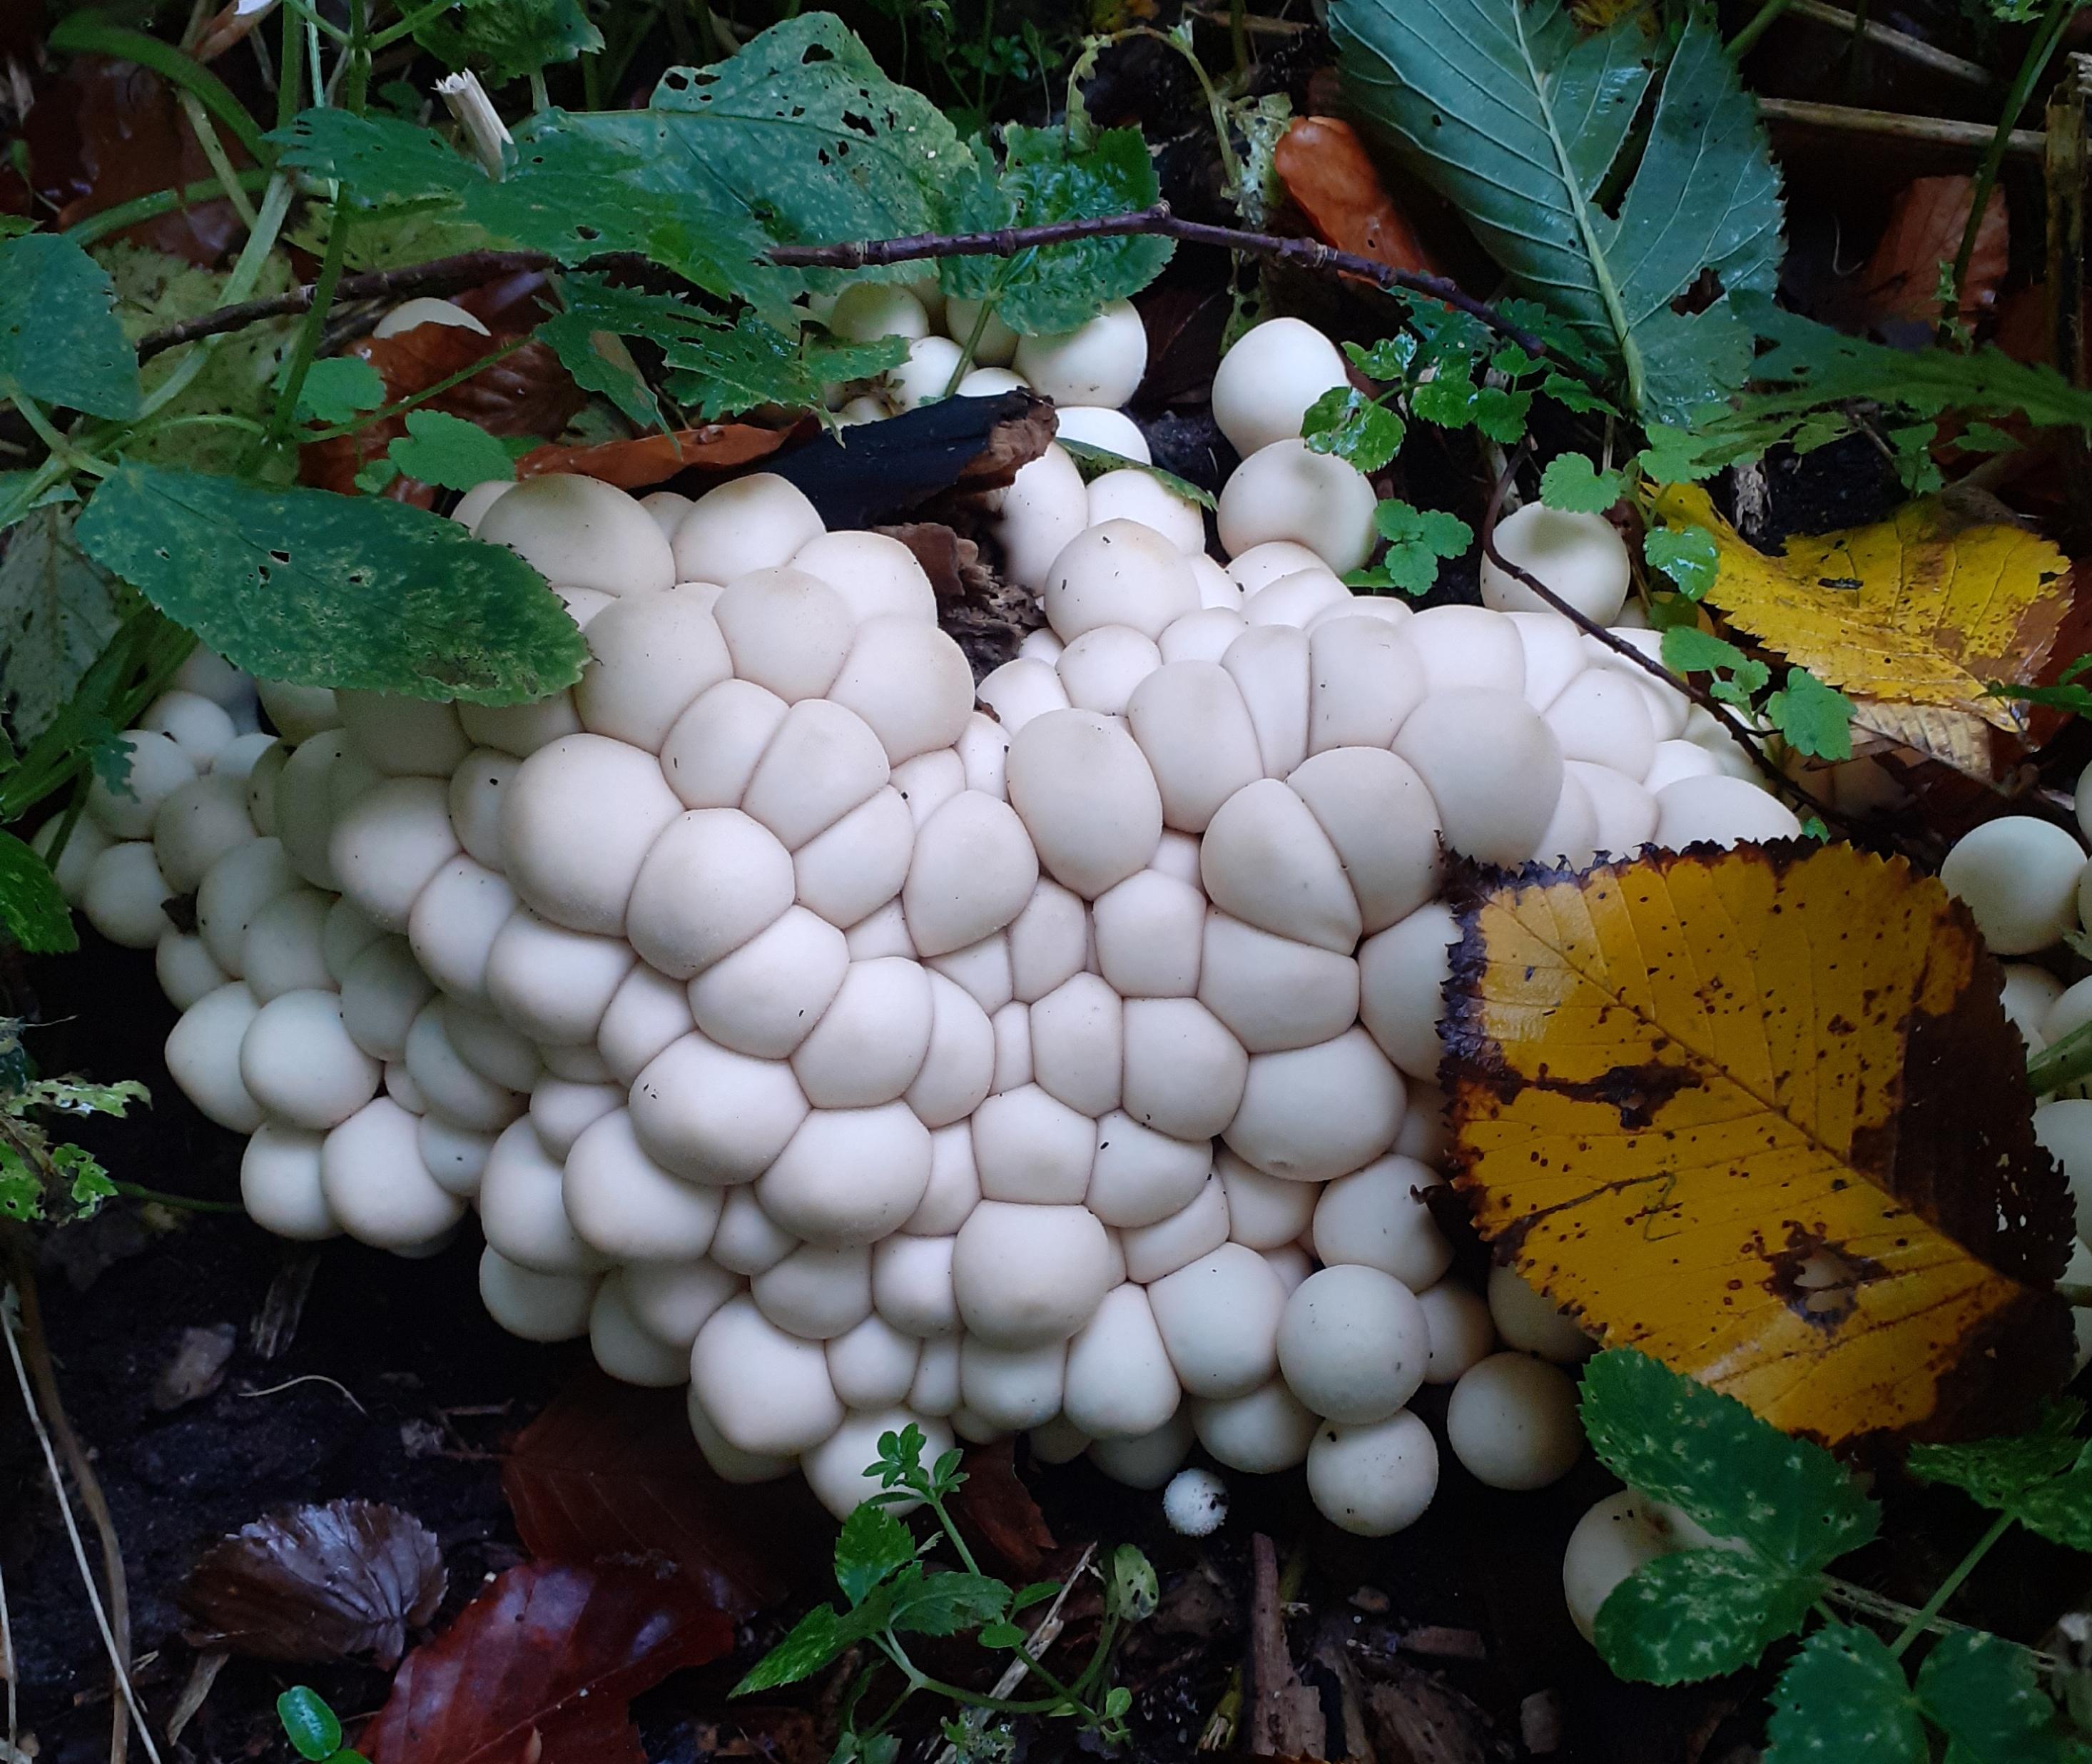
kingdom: Fungi
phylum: Basidiomycota
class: Agaricomycetes
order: Agaricales
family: Lycoperdaceae
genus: Apioperdon
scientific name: Apioperdon pyriforme
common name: pære-støvbold
